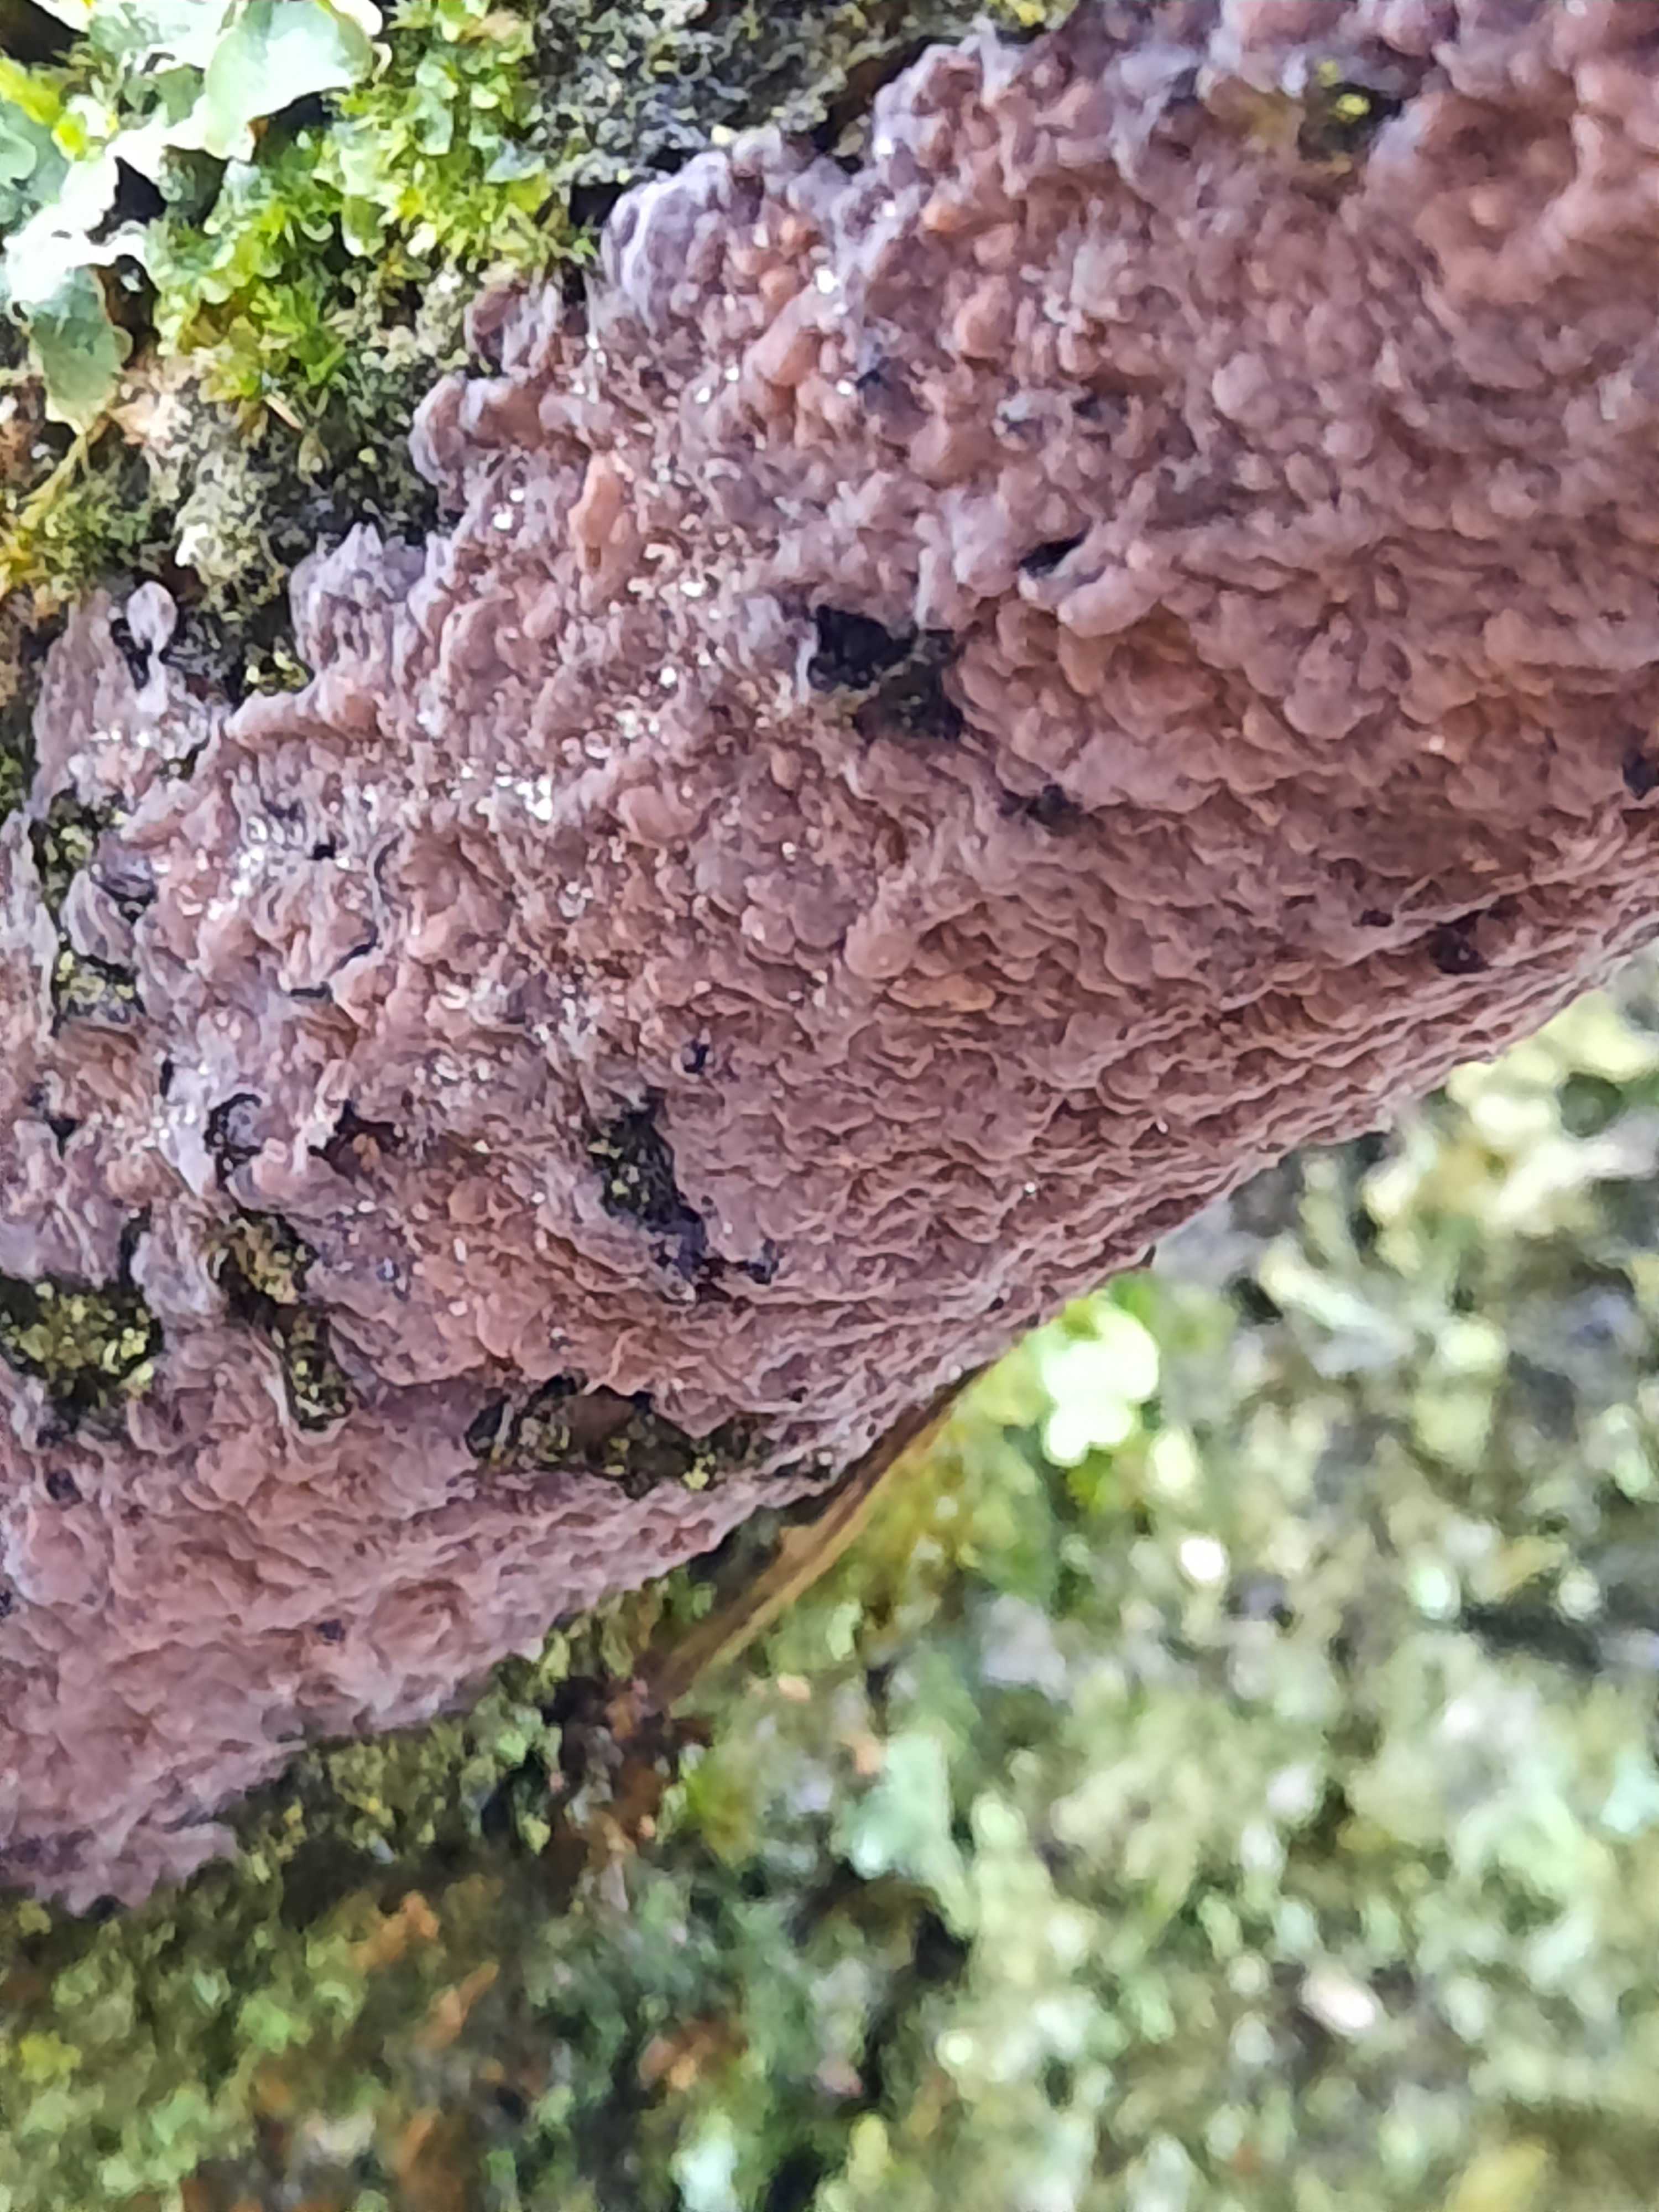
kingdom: Fungi
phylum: Basidiomycota
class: Agaricomycetes
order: Russulales
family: Peniophoraceae
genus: Peniophora
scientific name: Peniophora quercina
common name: ege-voksskind
